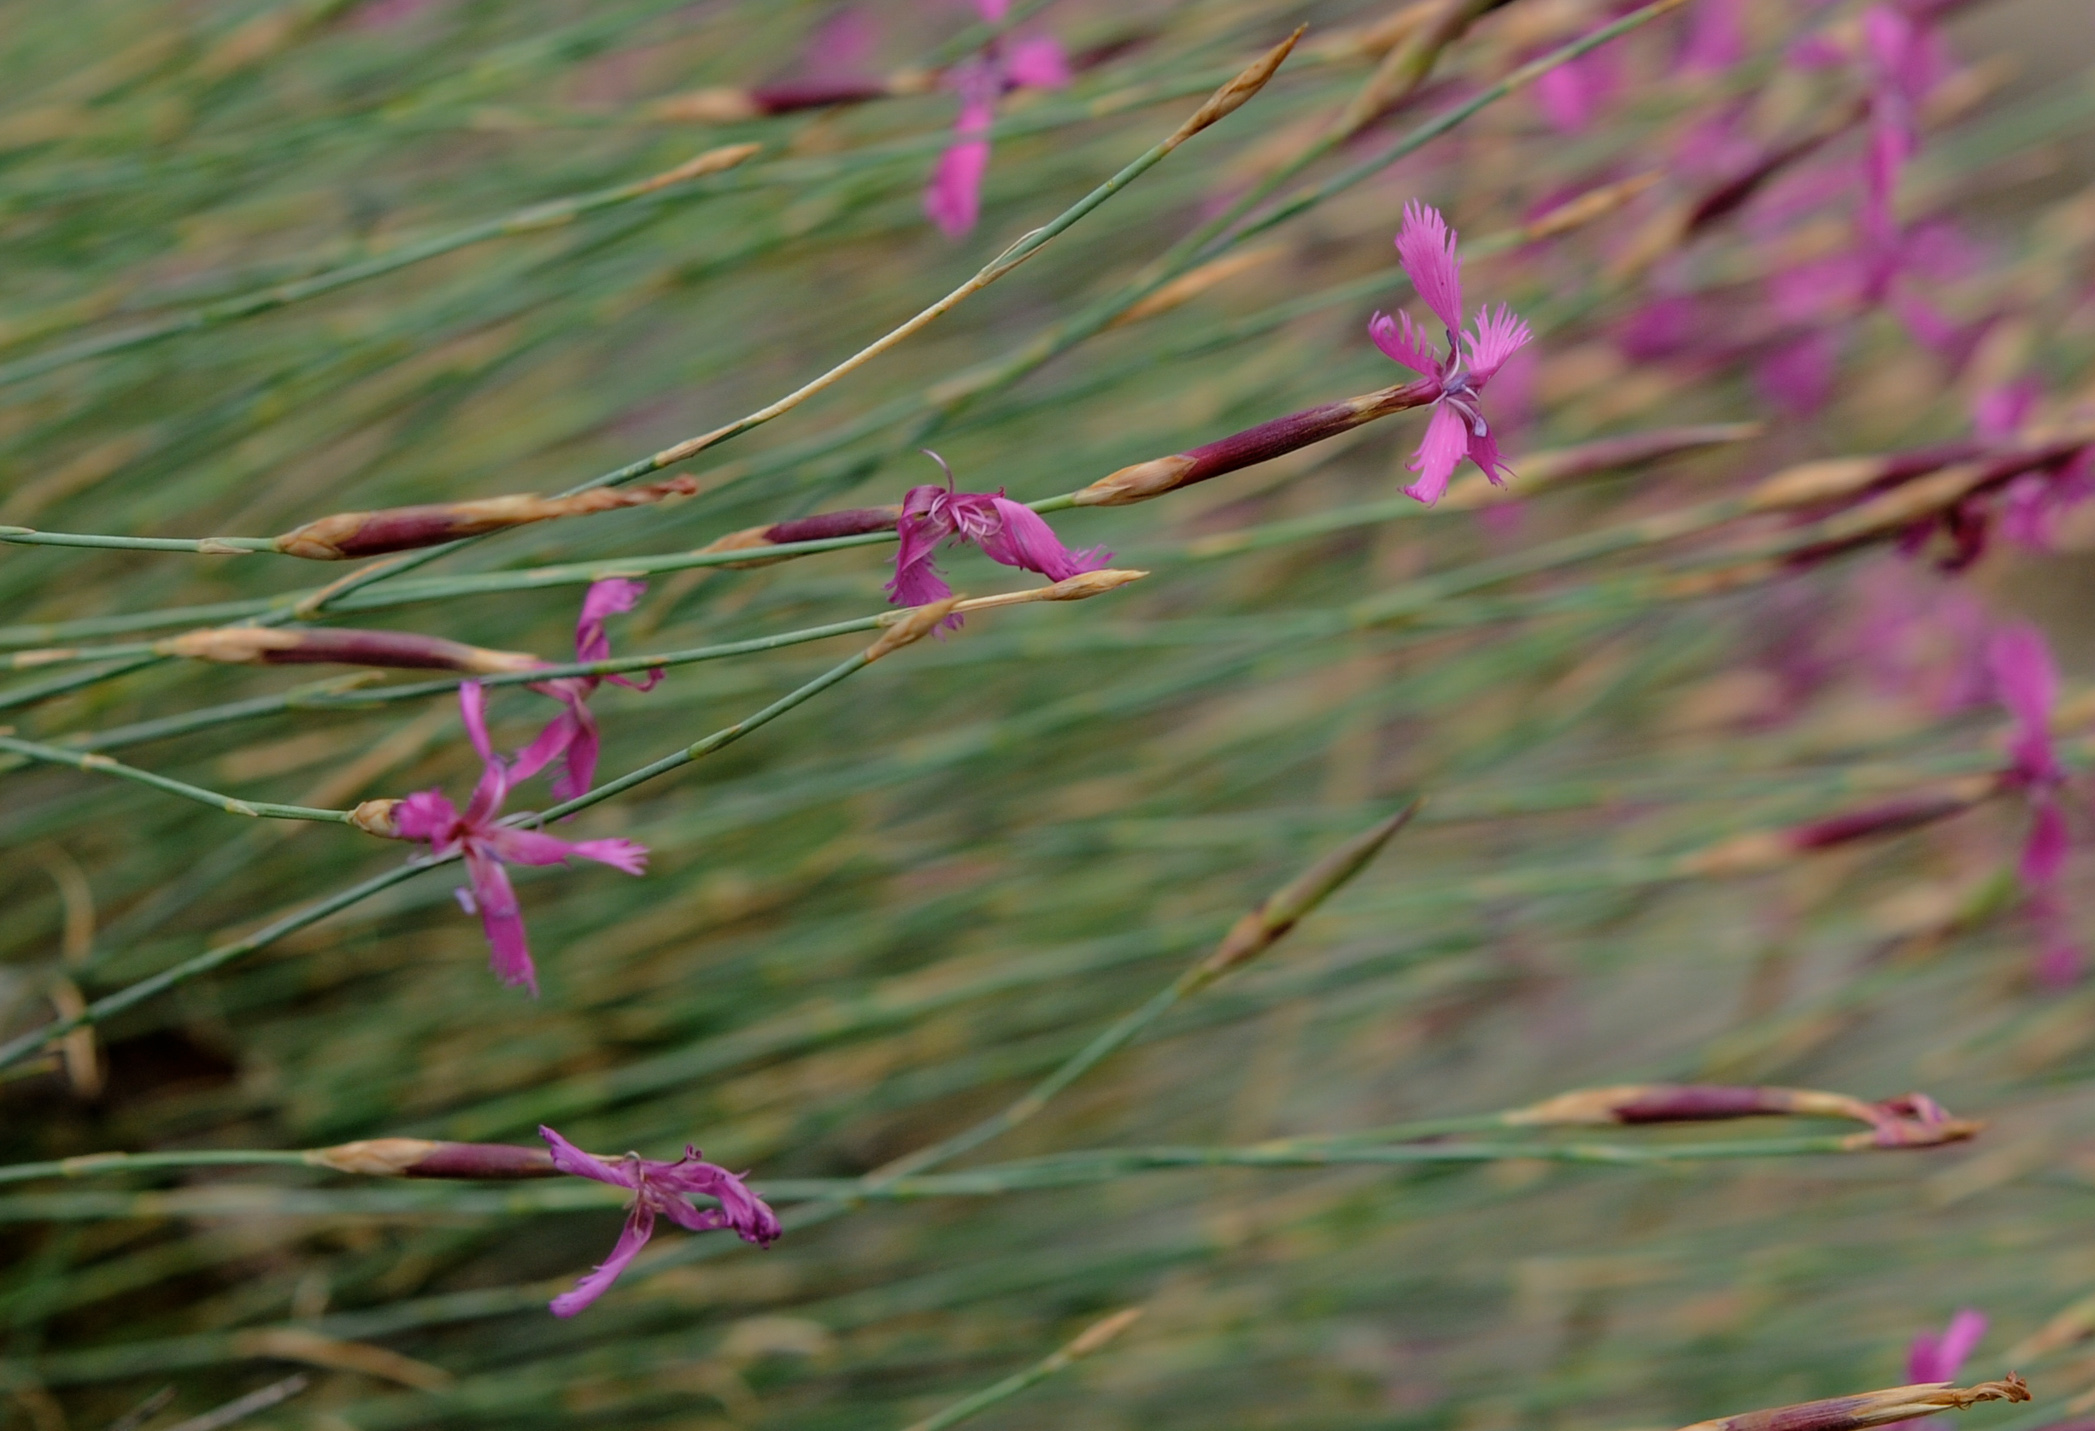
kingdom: Plantae
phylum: Tracheophyta
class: Magnoliopsida
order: Caryophyllales
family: Caryophyllaceae
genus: Dianthus
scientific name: Dianthus orientalis
